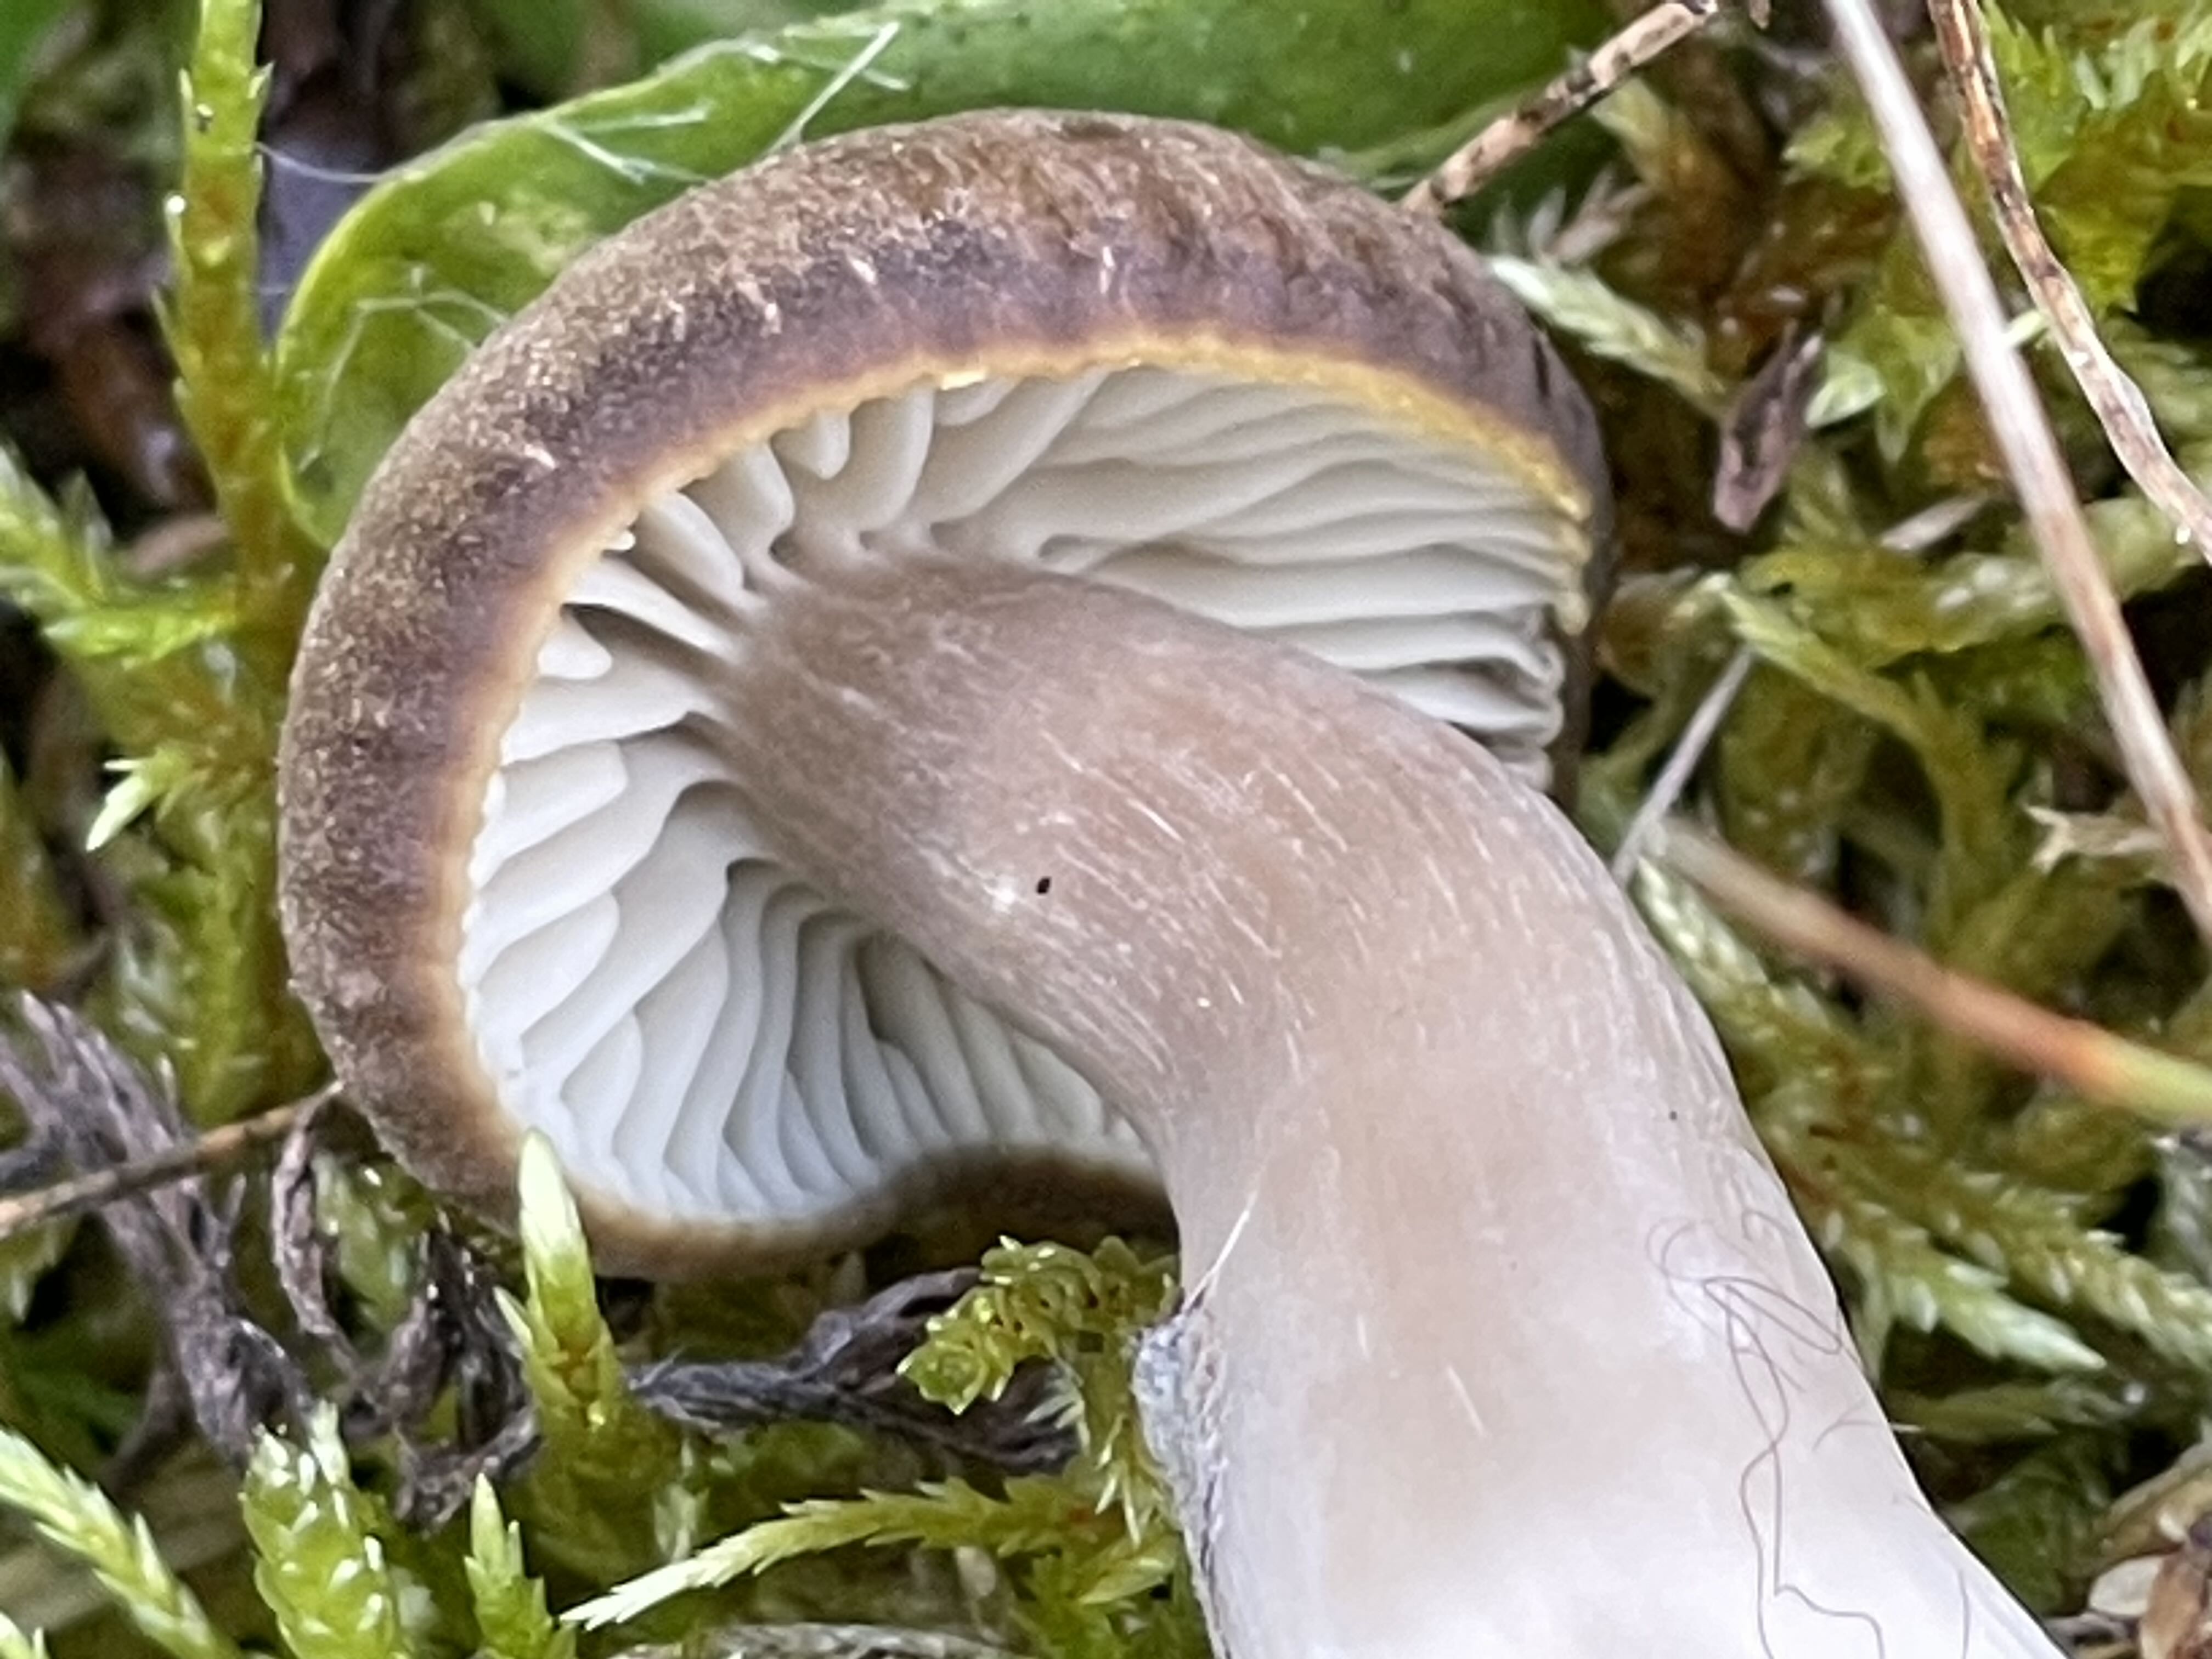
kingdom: Fungi
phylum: Basidiomycota
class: Agaricomycetes
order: Agaricales
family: Hygrophoraceae
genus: Neohygrocybe
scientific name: Neohygrocybe nitrata
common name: stinkende vokshat
